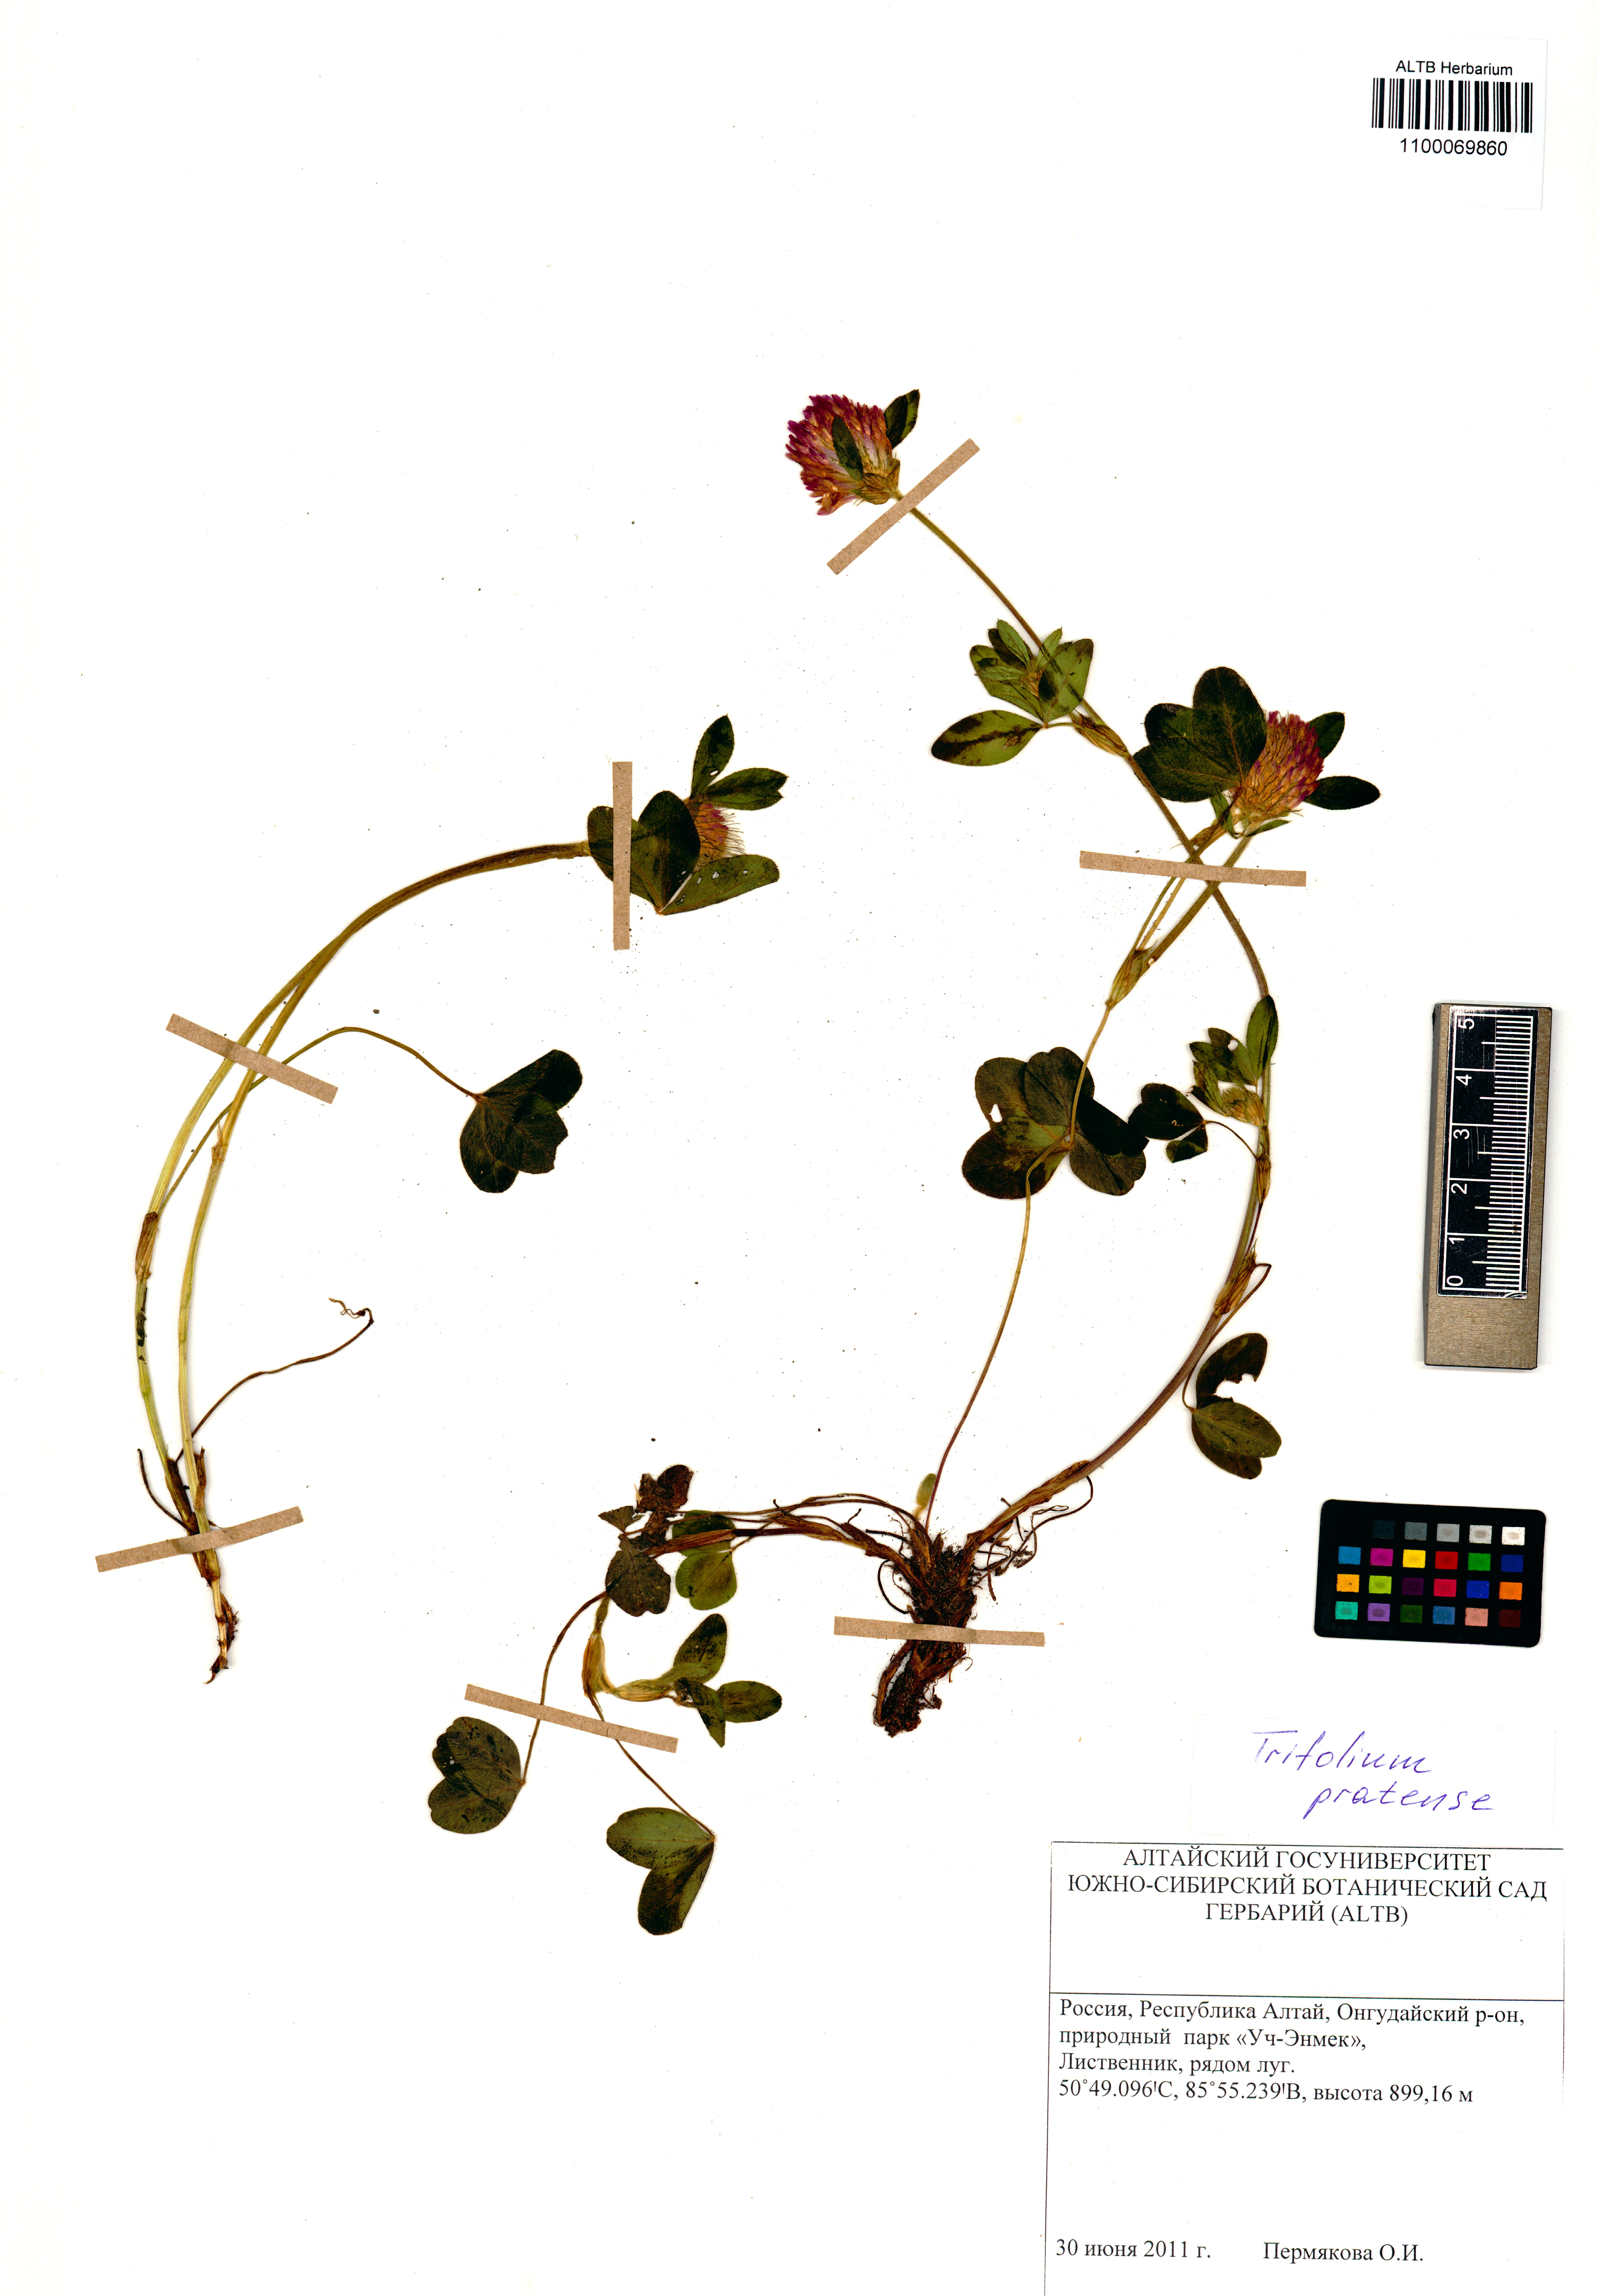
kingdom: Plantae
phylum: Tracheophyta
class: Magnoliopsida
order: Fabales
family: Fabaceae
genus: Trifolium
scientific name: Trifolium pratense
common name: Red clover
